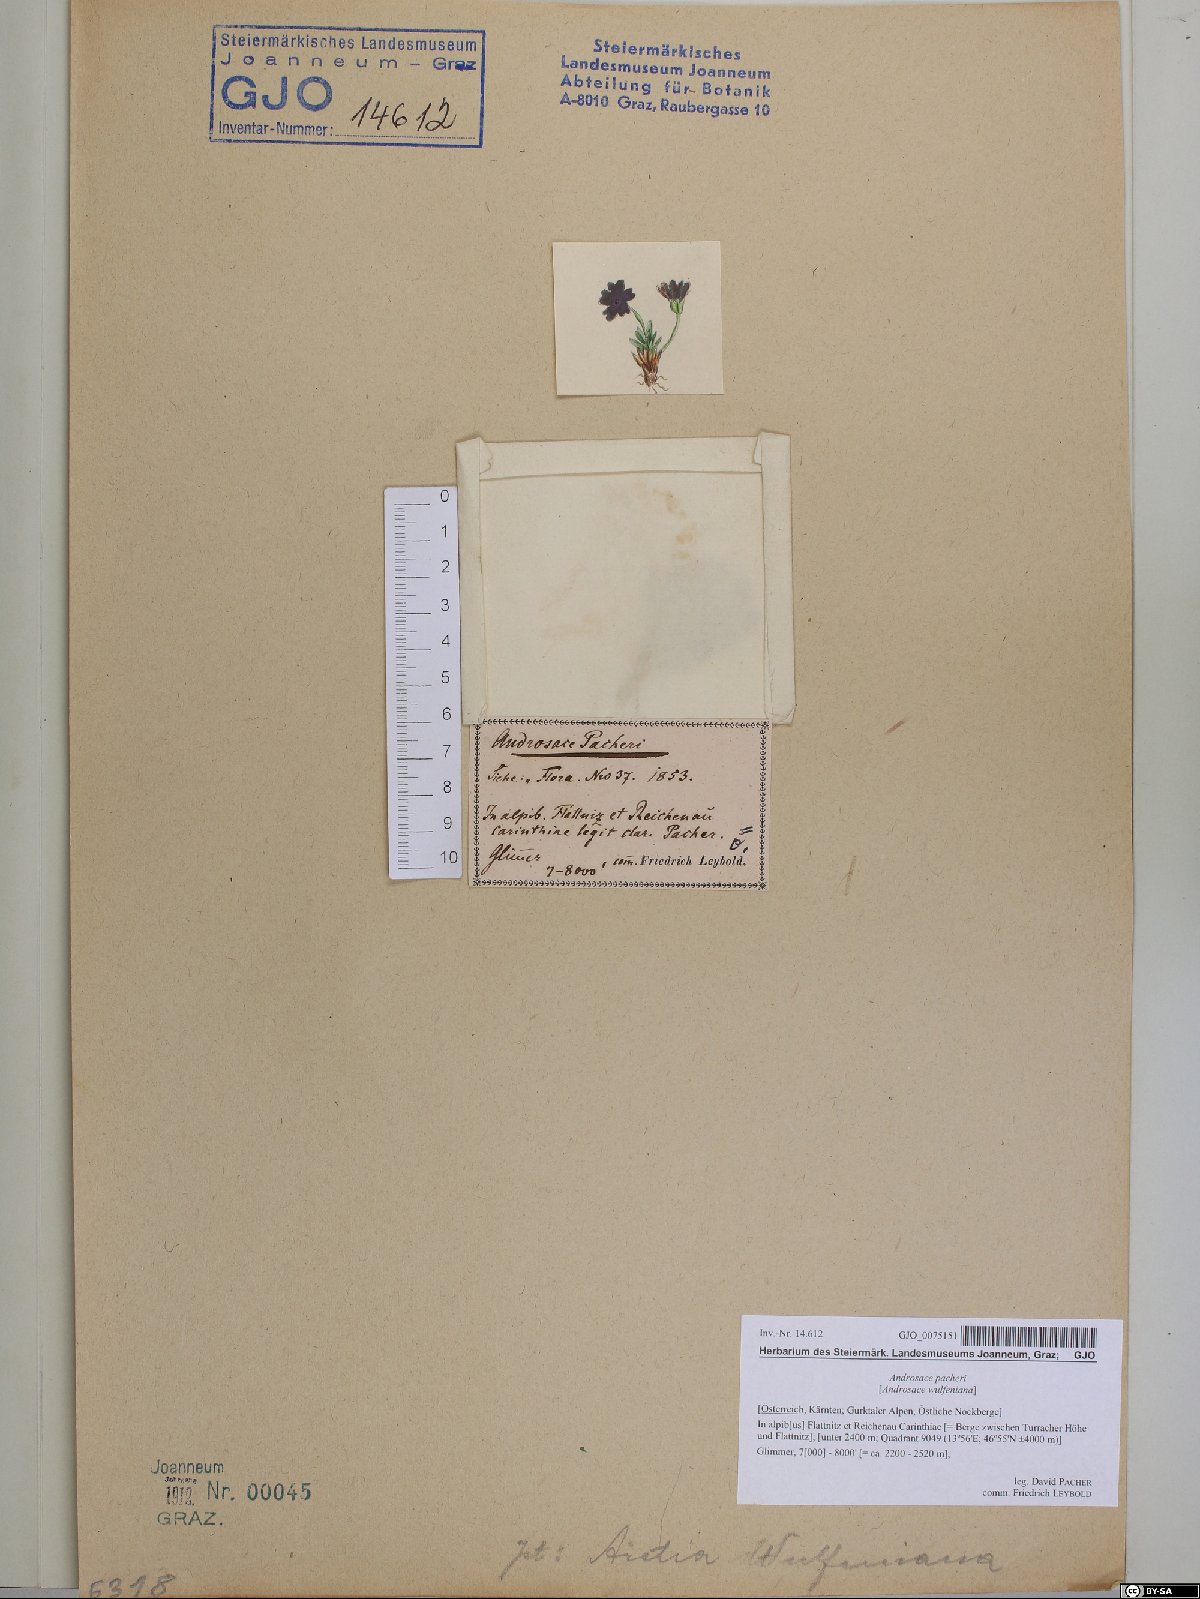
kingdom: Plantae
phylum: Tracheophyta
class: Magnoliopsida
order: Ericales
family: Primulaceae
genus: Androsace
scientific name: Androsace wulfeniana
